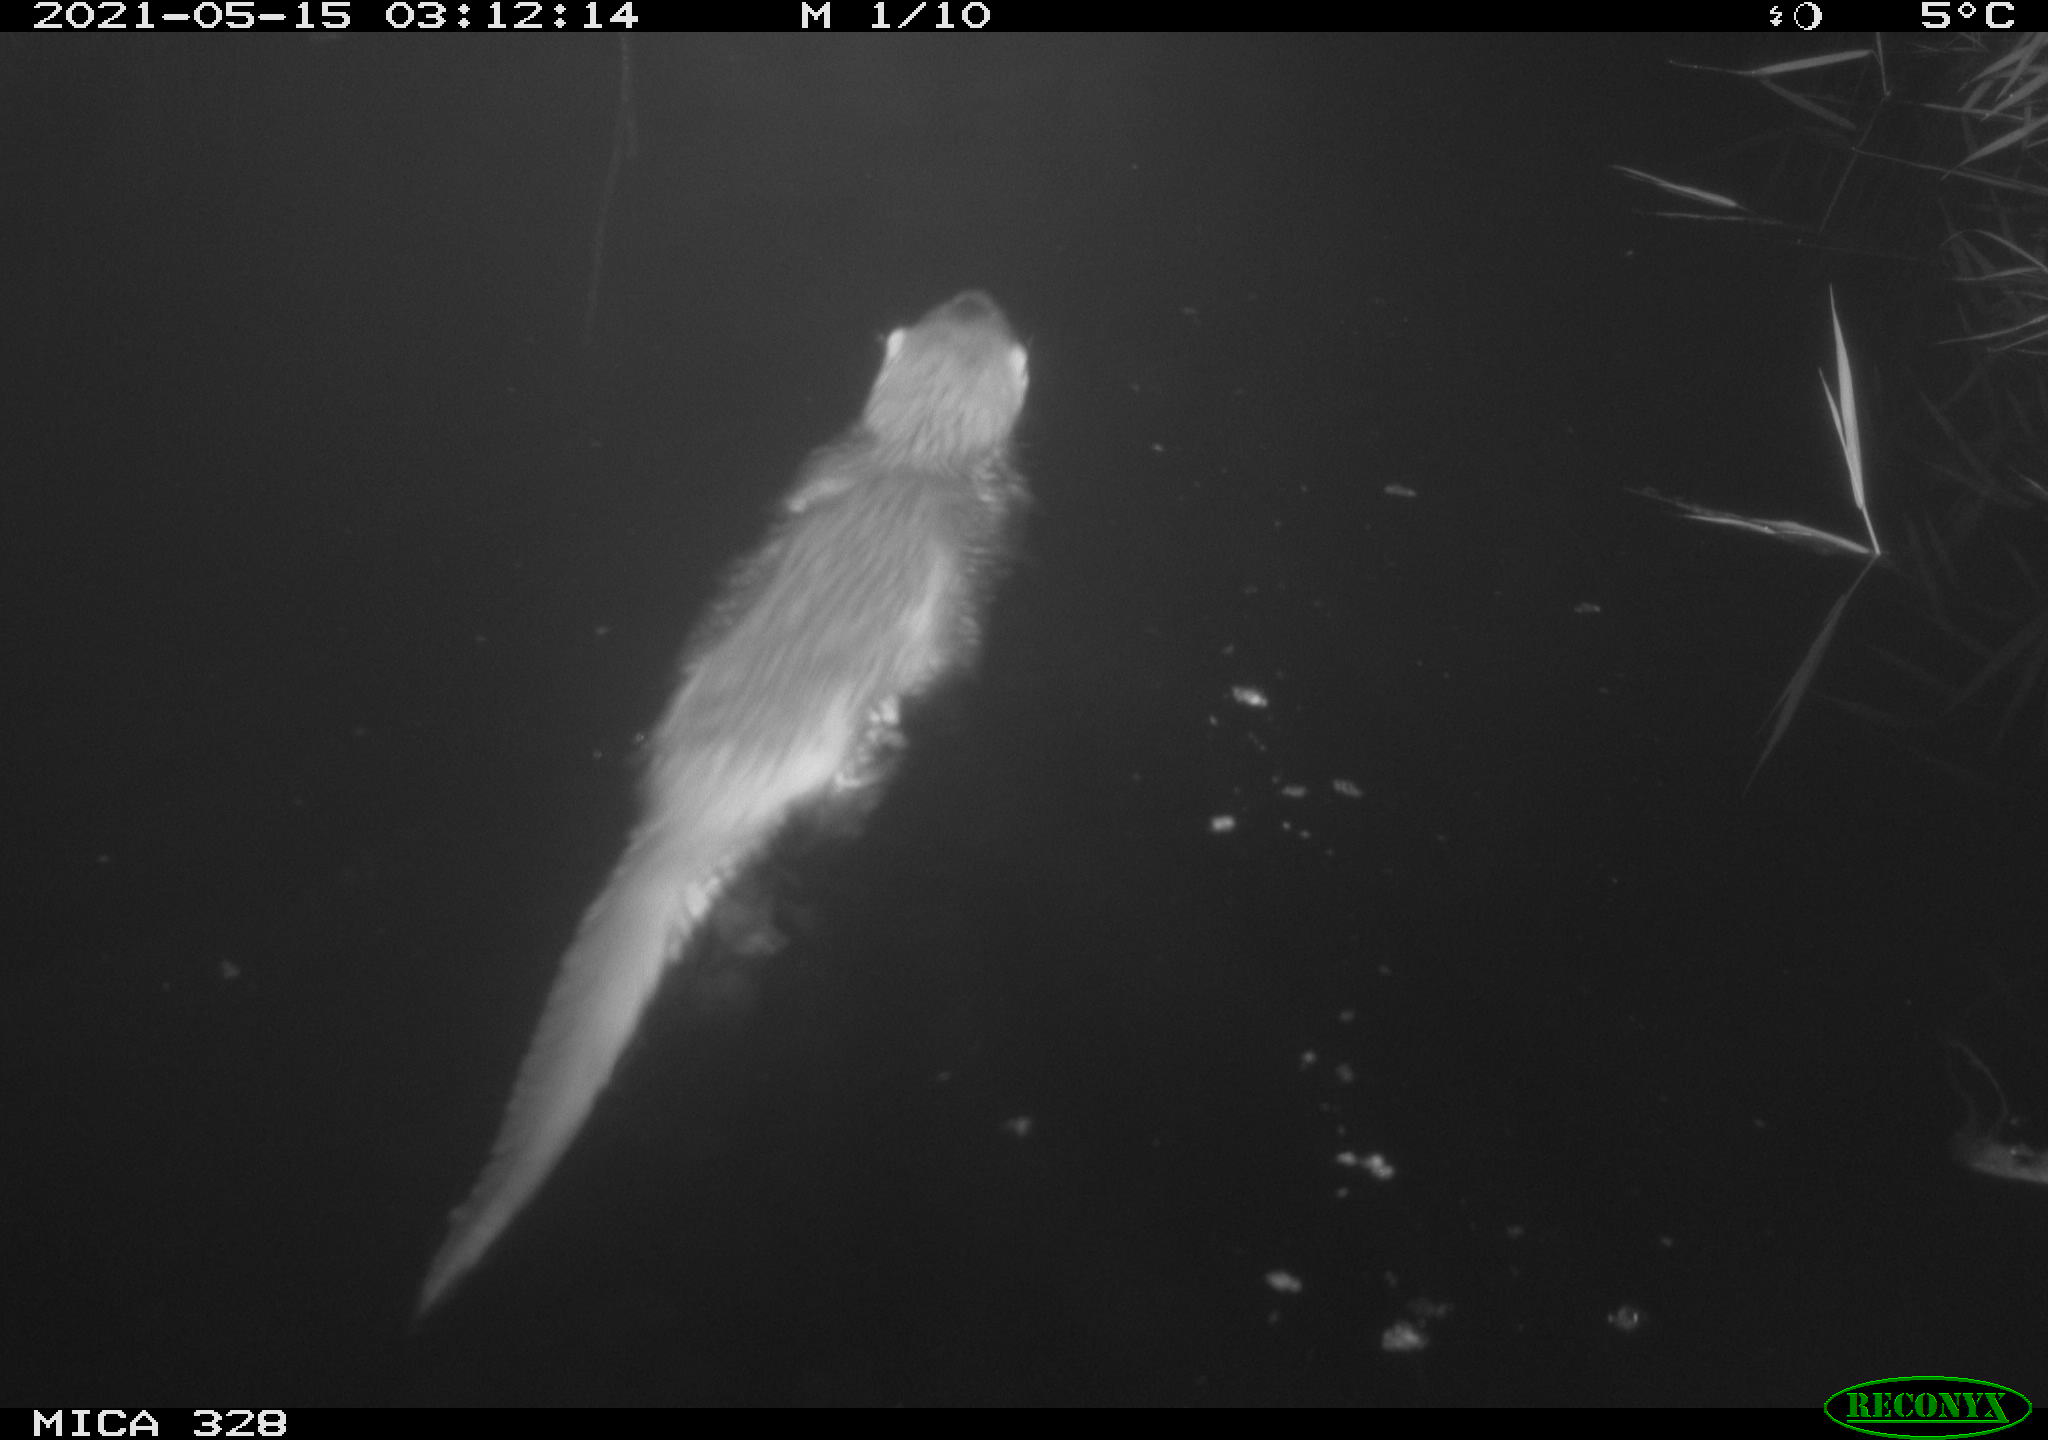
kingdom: Animalia
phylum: Chordata
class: Mammalia
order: Carnivora
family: Mustelidae
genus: Lutra
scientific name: Lutra lutra
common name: European otter
